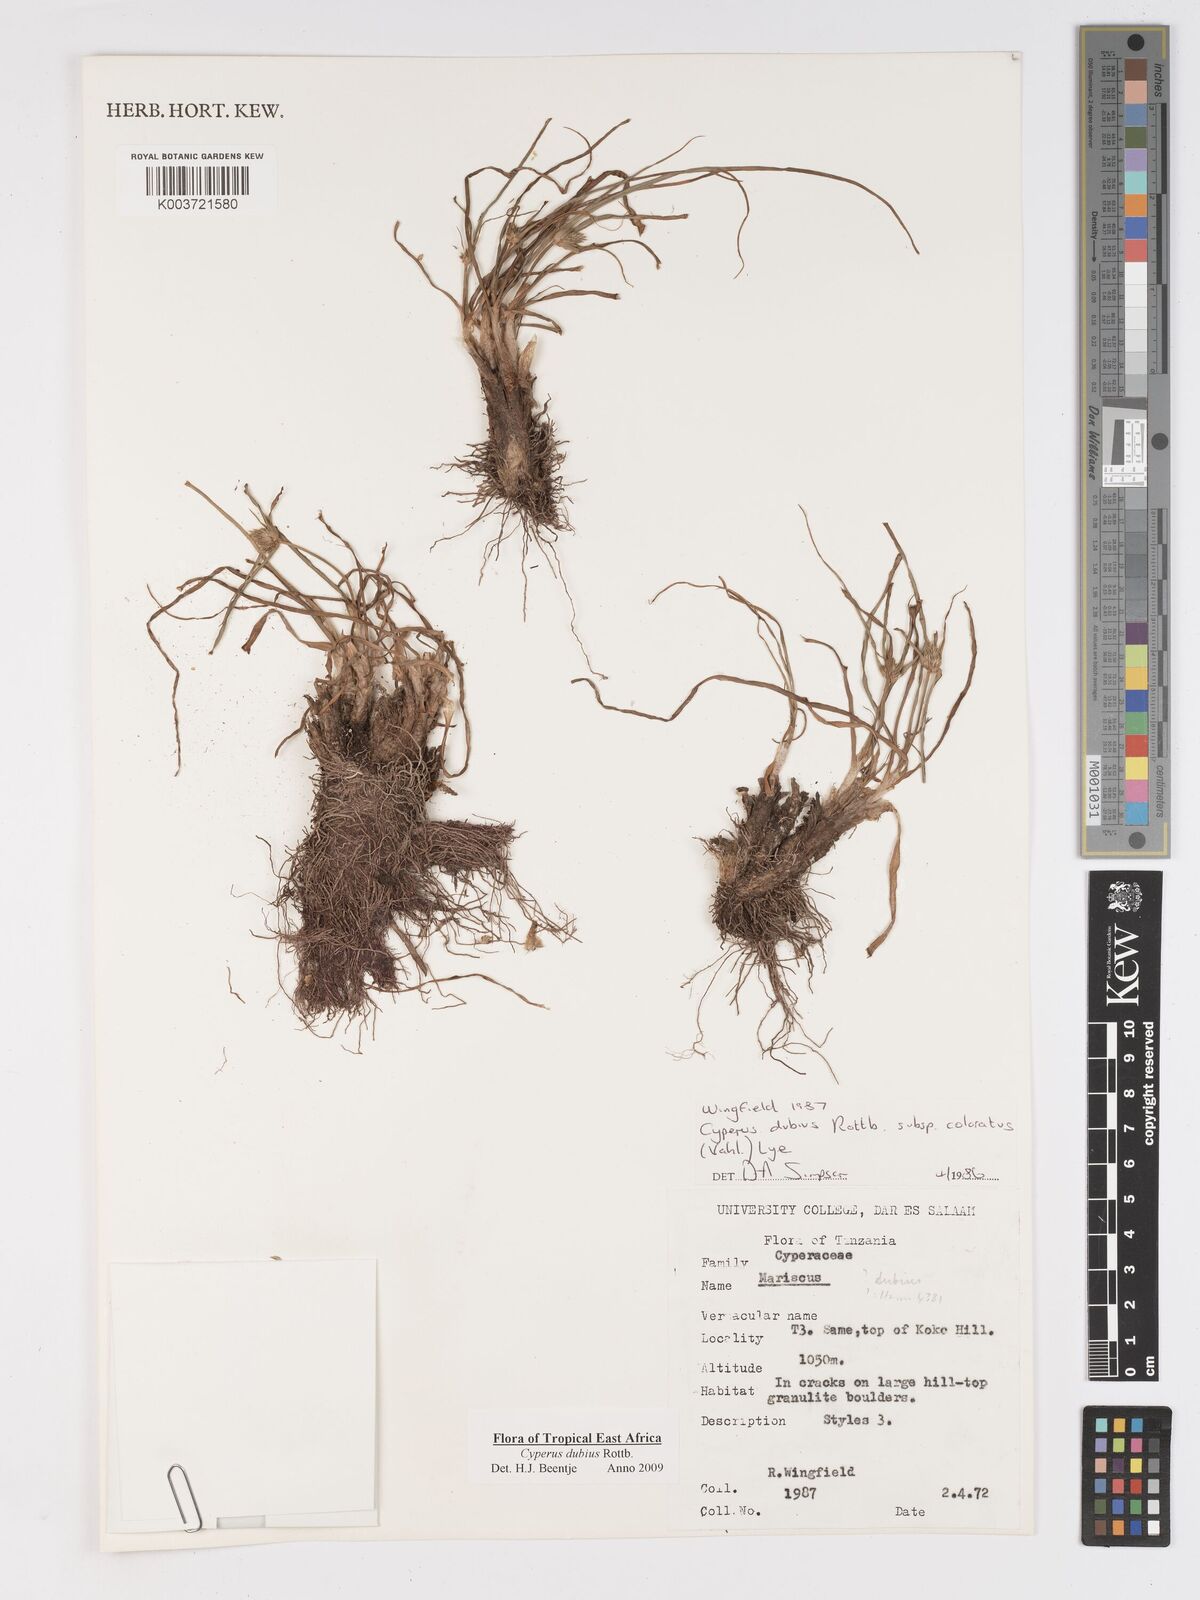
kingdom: Plantae
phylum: Tracheophyta
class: Liliopsida
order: Poales
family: Cyperaceae
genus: Cyperus
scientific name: Cyperus dubius
